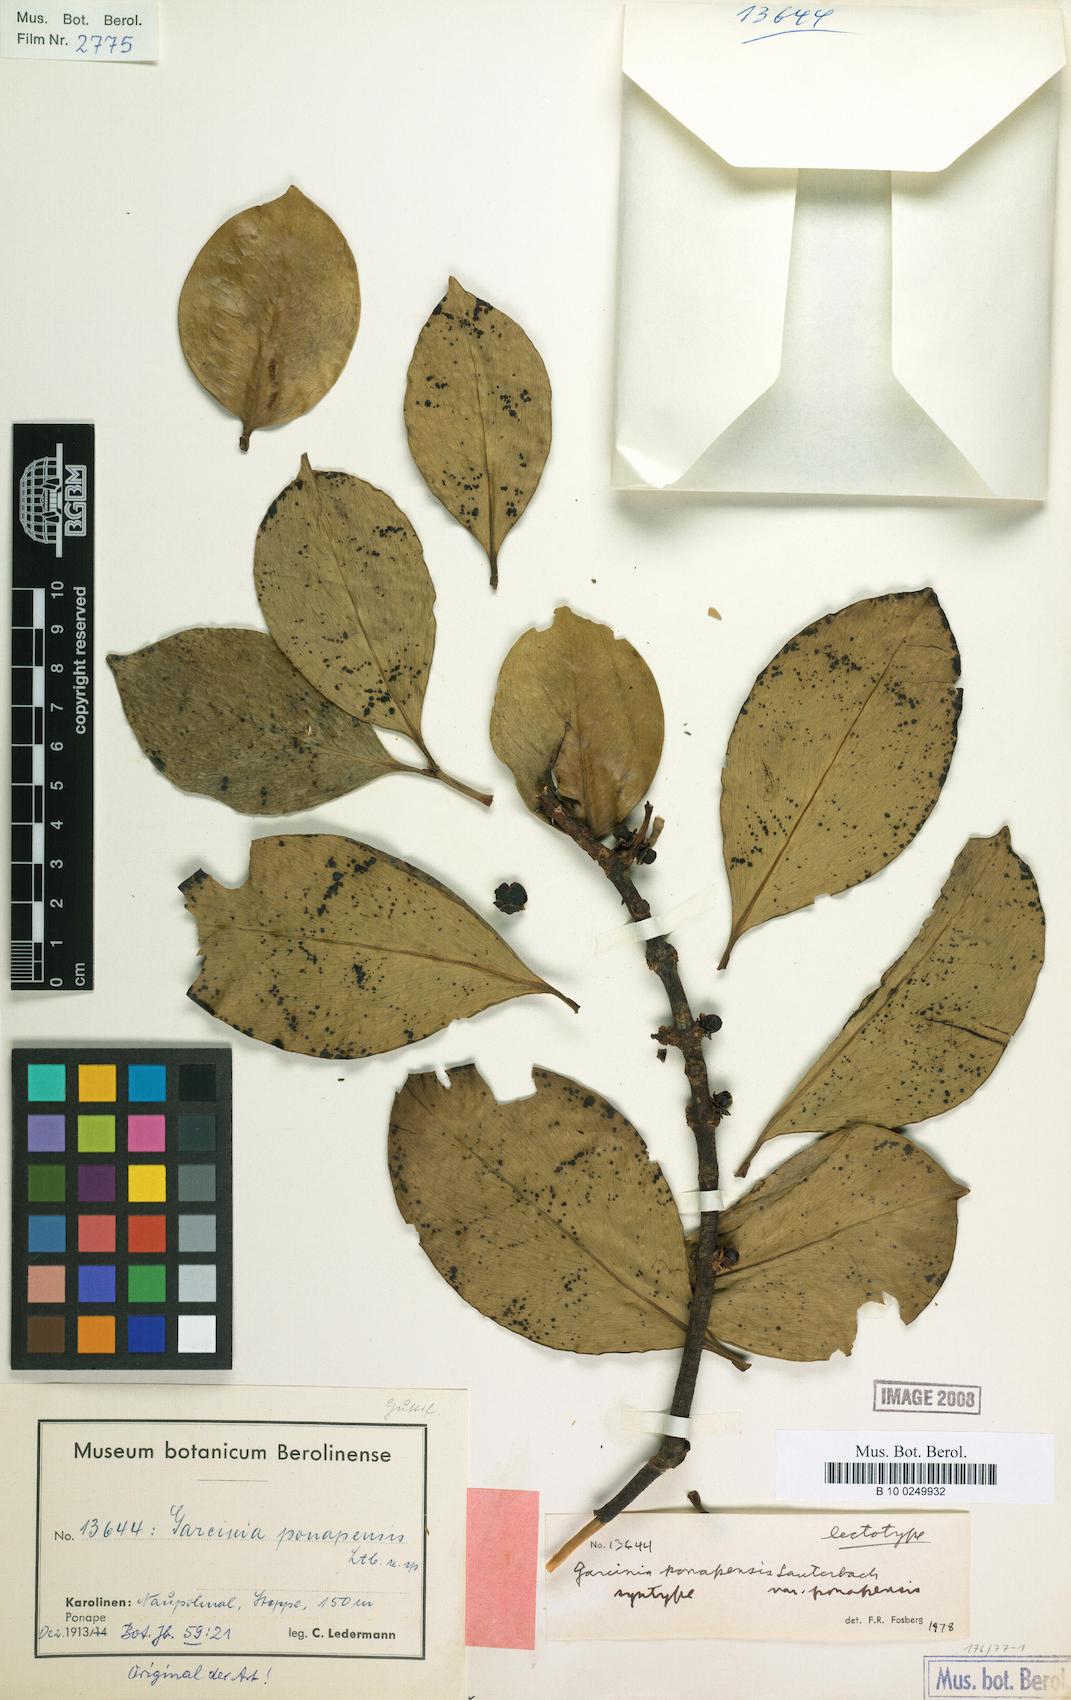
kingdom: Plantae
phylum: Tracheophyta
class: Magnoliopsida
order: Malpighiales
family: Clusiaceae
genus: Garcinia
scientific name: Garcinia ponapensis
